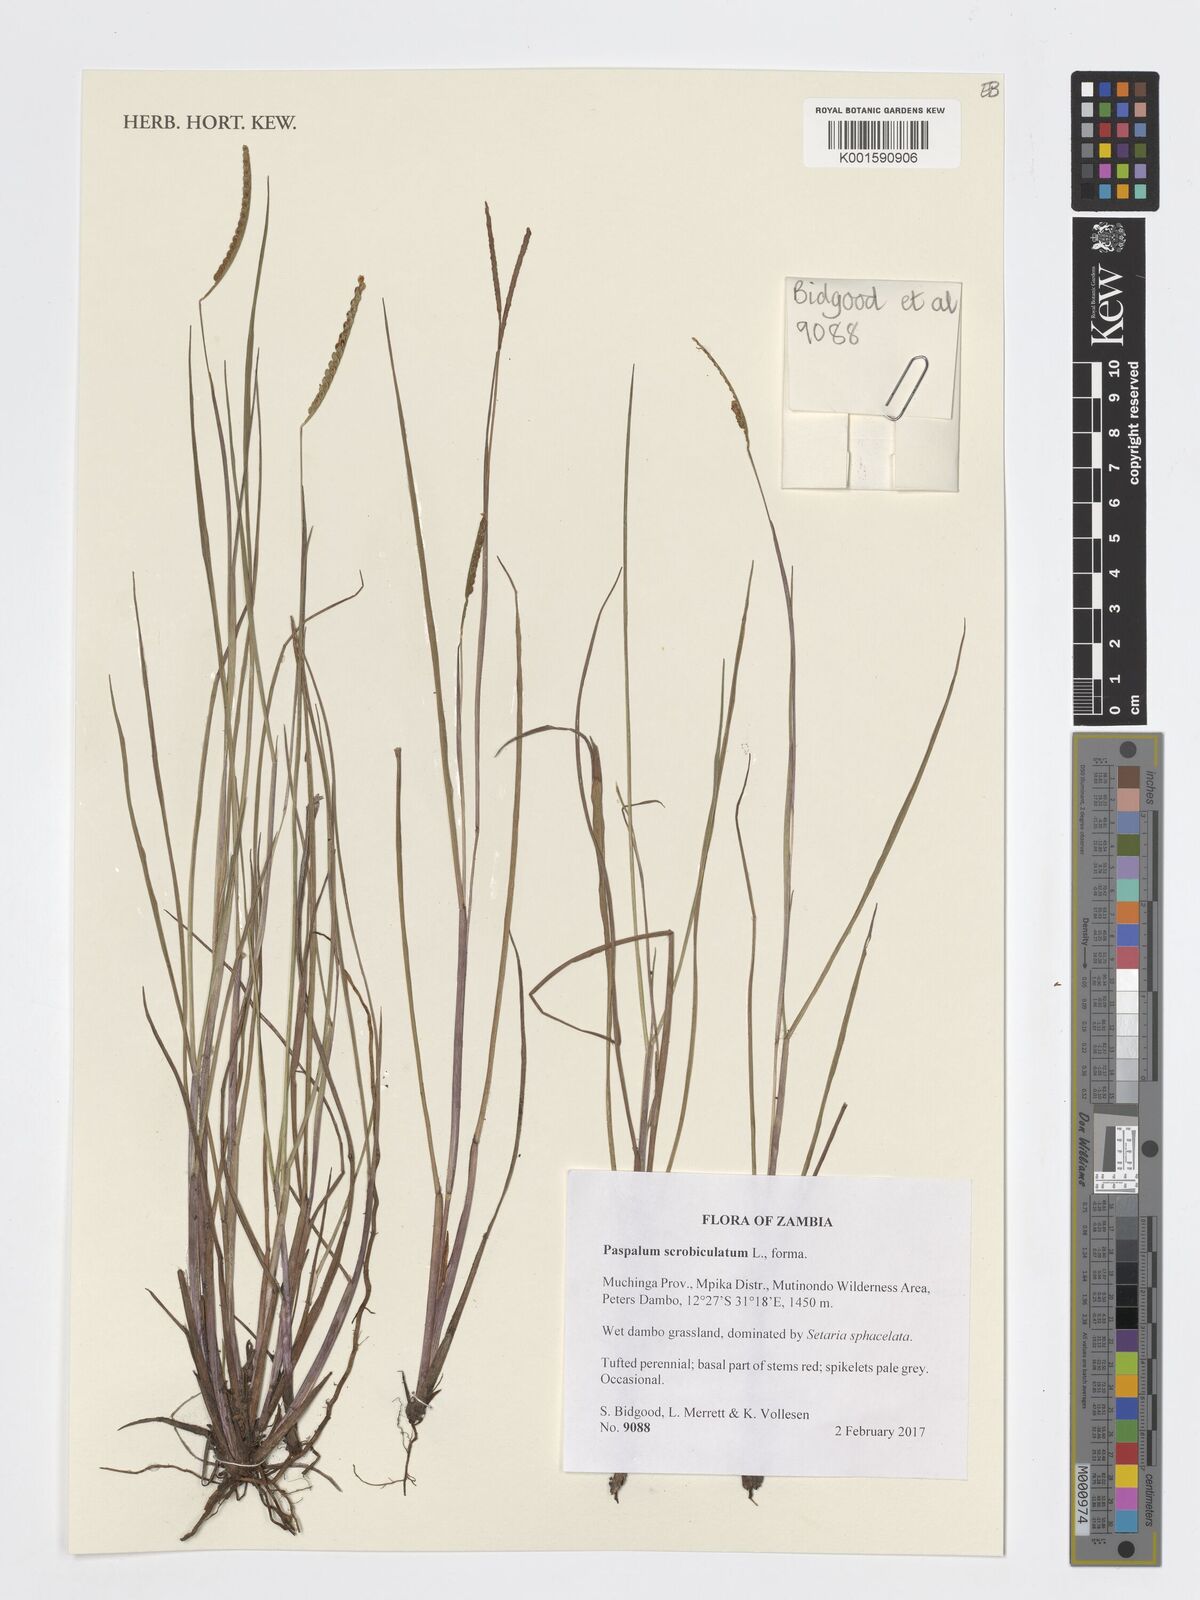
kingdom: Plantae
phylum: Tracheophyta
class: Liliopsida
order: Poales
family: Poaceae
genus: Paspalum
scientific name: Paspalum scrobiculatum
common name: Kodo millet
